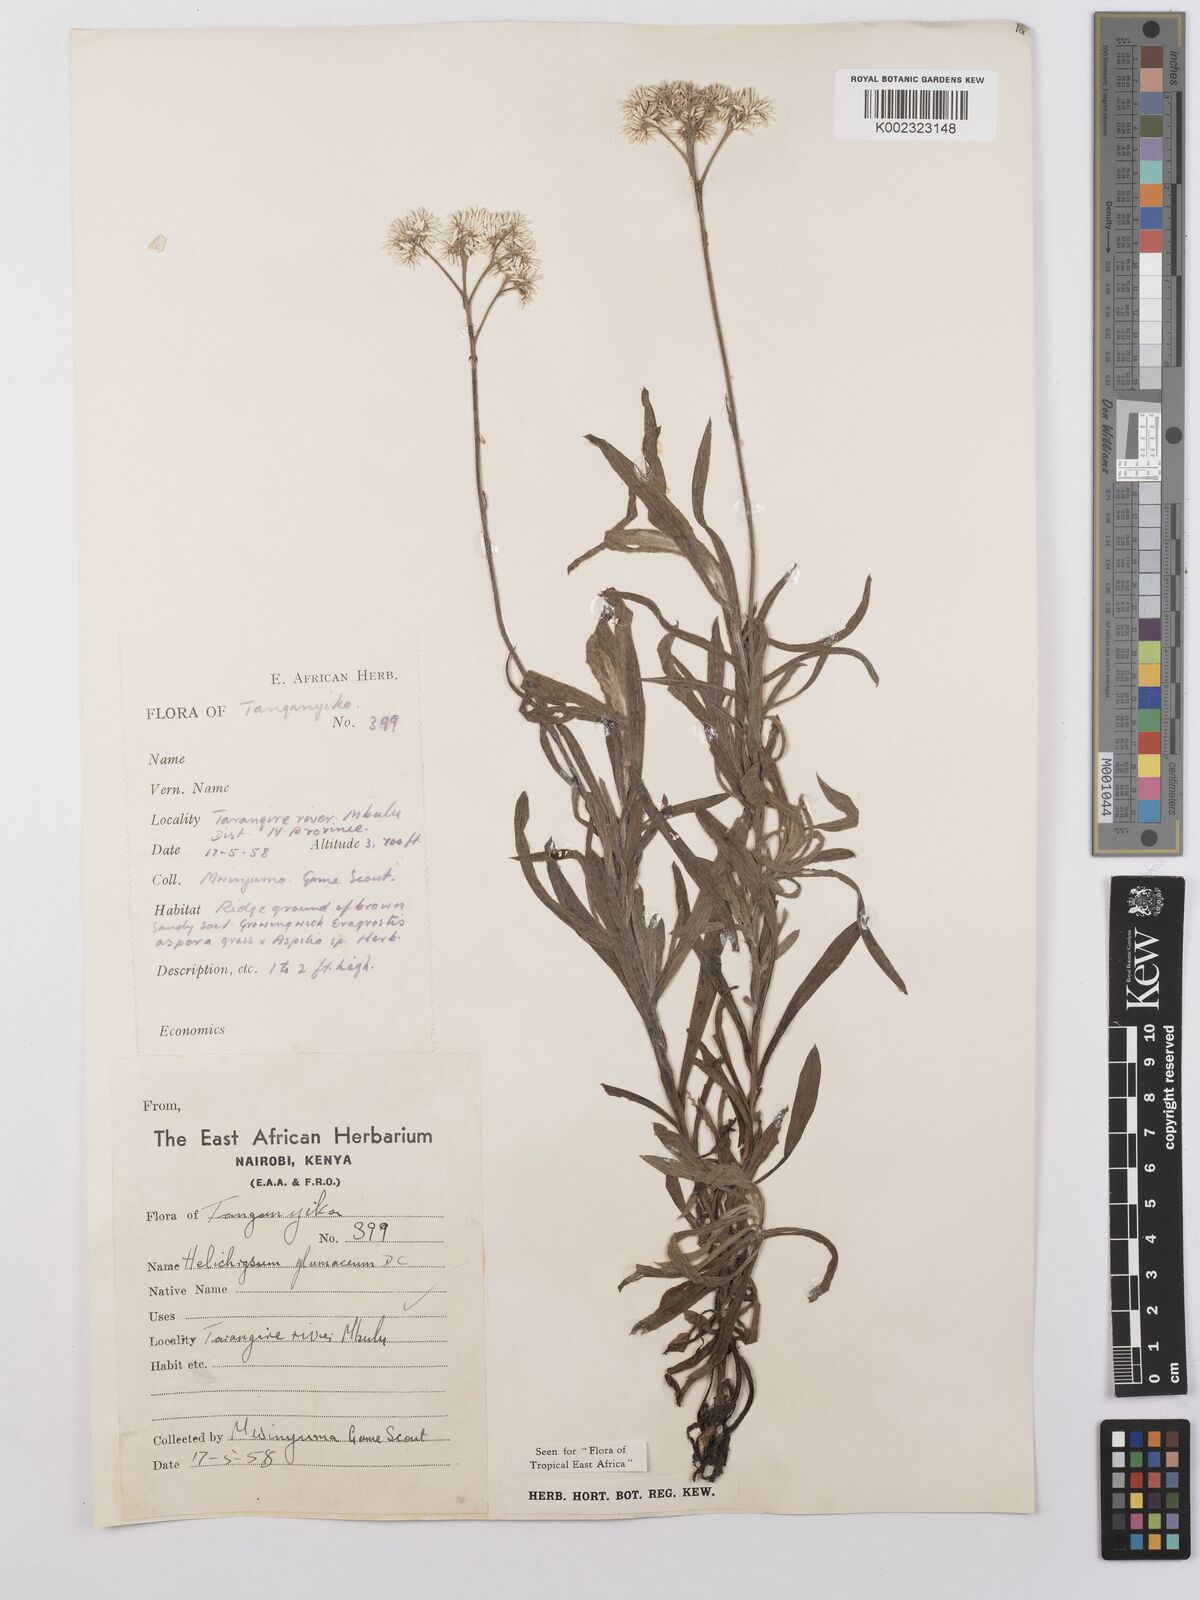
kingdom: Plantae
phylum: Tracheophyta
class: Magnoliopsida
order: Asterales
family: Asteraceae
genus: Helichrysum
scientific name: Helichrysum glumaceum
